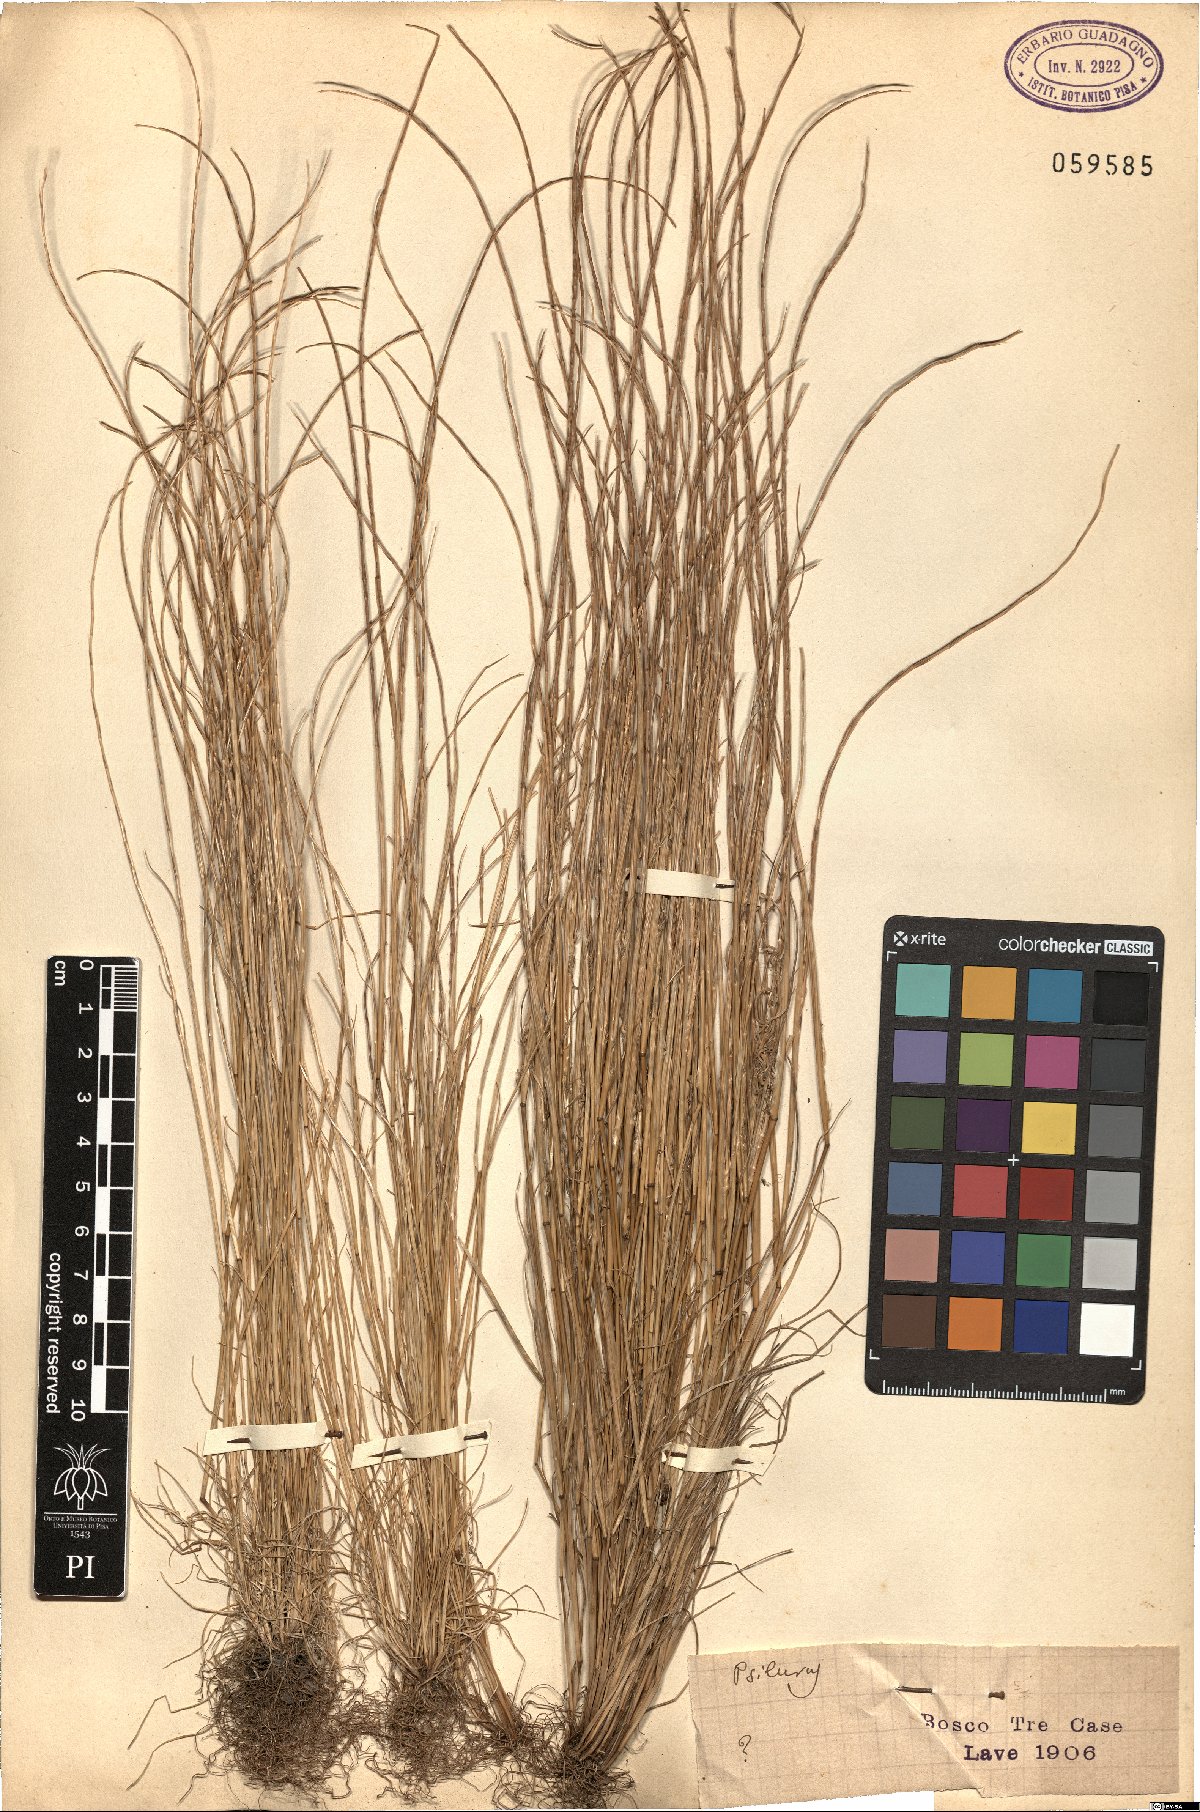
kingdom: Plantae
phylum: Tracheophyta
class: Liliopsida
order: Poales
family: Poaceae
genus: Festuca
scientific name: Festuca
